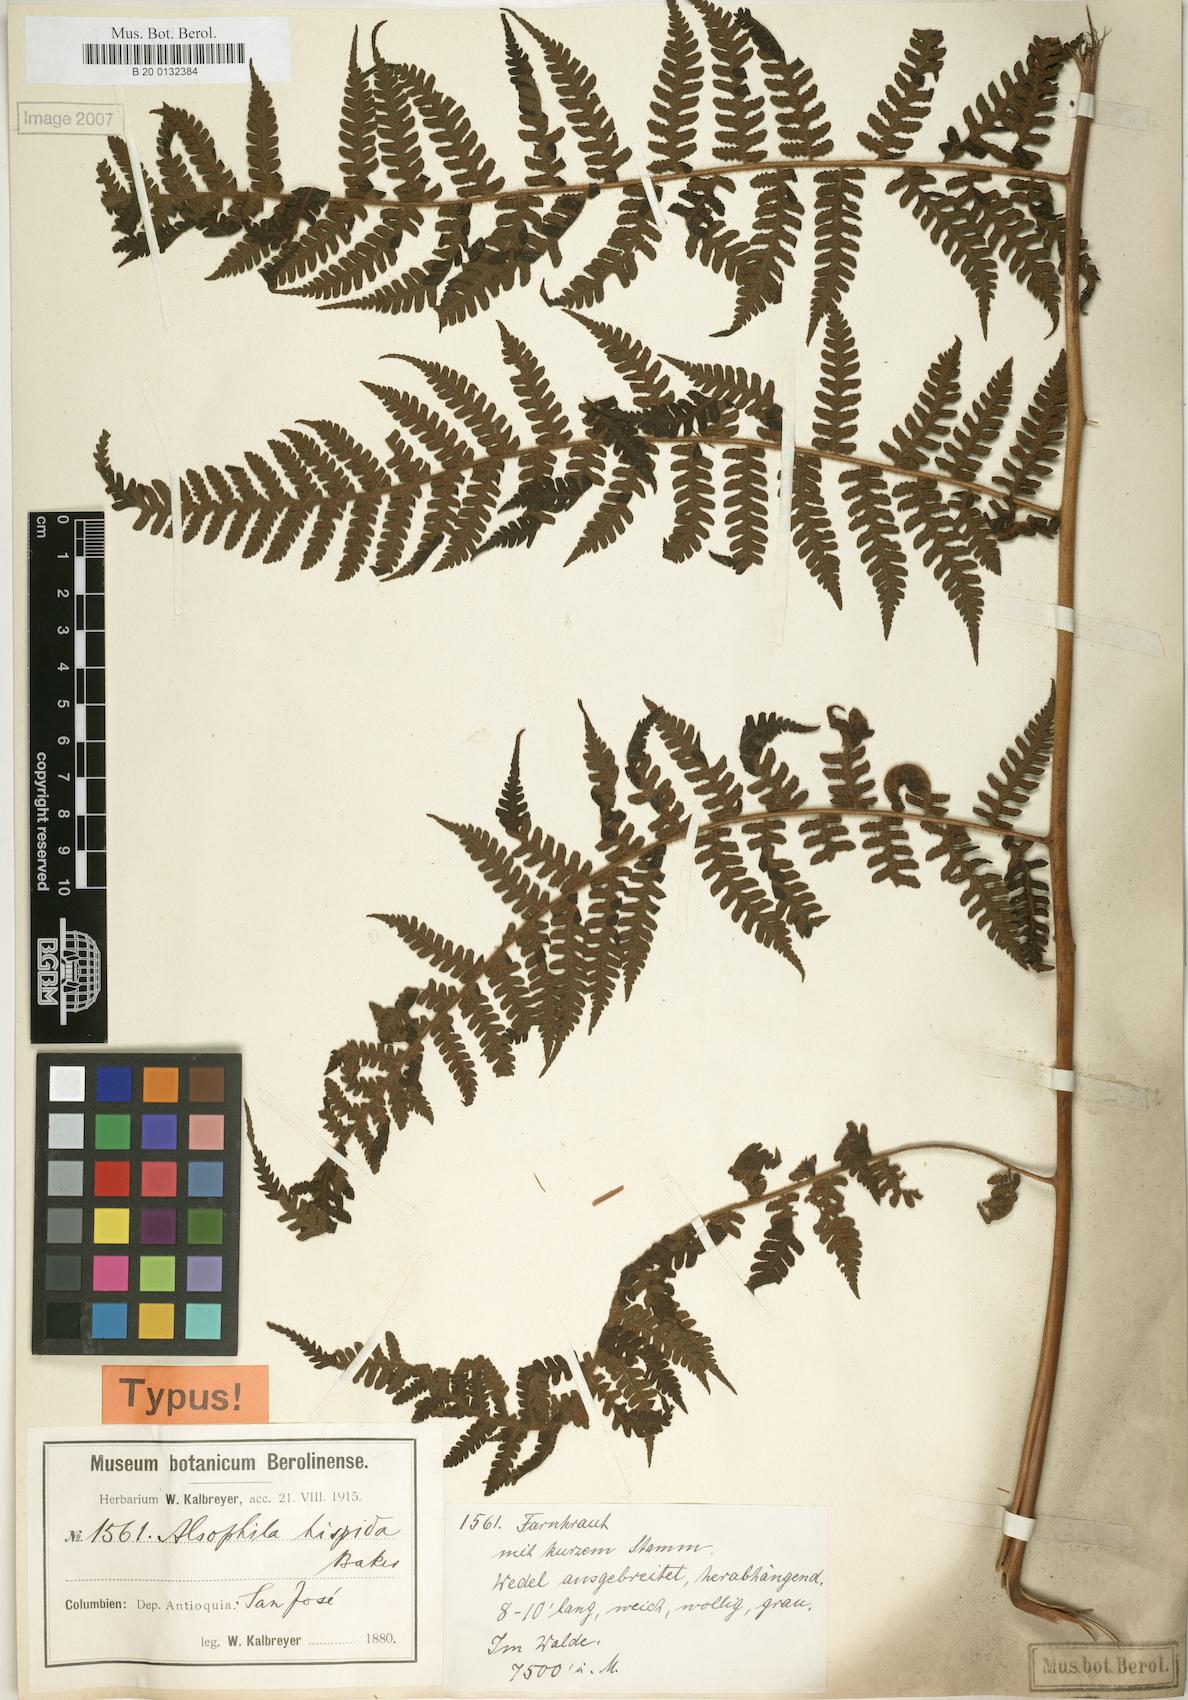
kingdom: Plantae
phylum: Tracheophyta
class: Polypodiopsida
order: Cyatheales
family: Cyatheaceae
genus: Alsophila
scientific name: Alsophila hispida
